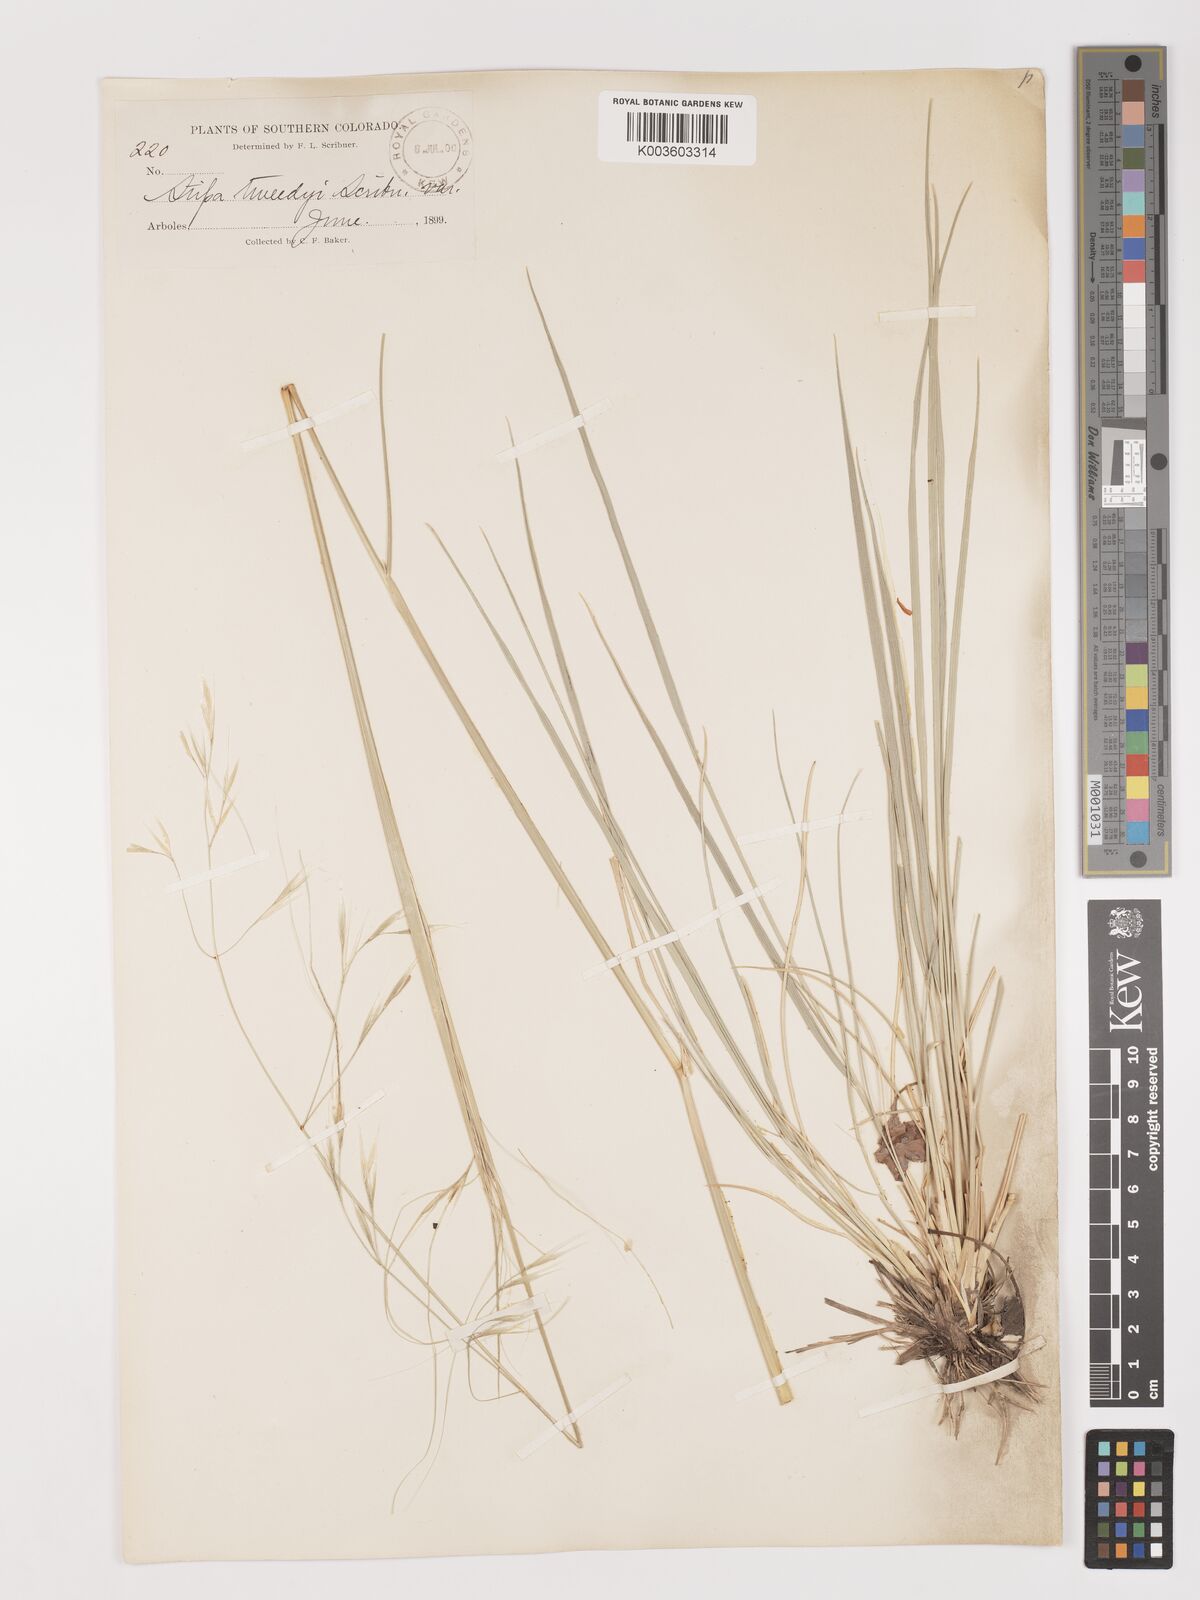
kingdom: Plantae
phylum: Tracheophyta
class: Liliopsida
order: Poales
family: Poaceae
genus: Stipa
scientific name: Stipa
